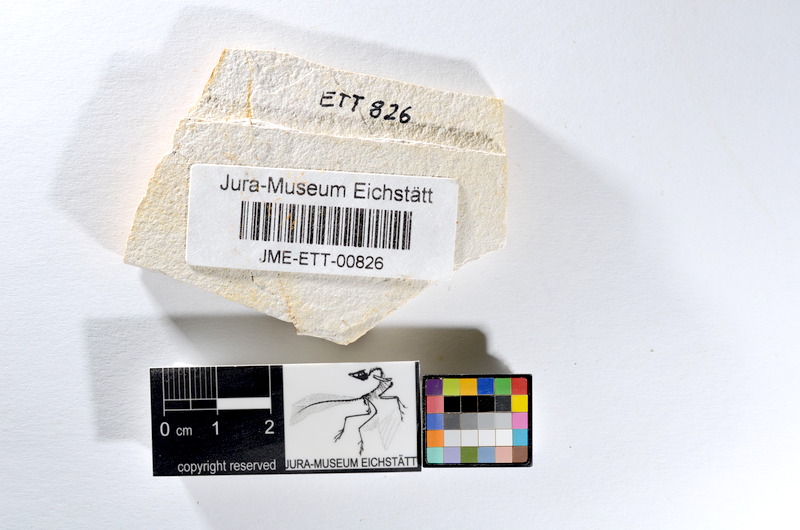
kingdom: Animalia
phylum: Chordata
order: Salmoniformes
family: Orthogonikleithridae
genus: Orthogonikleithrus
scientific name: Orthogonikleithrus hoelli
